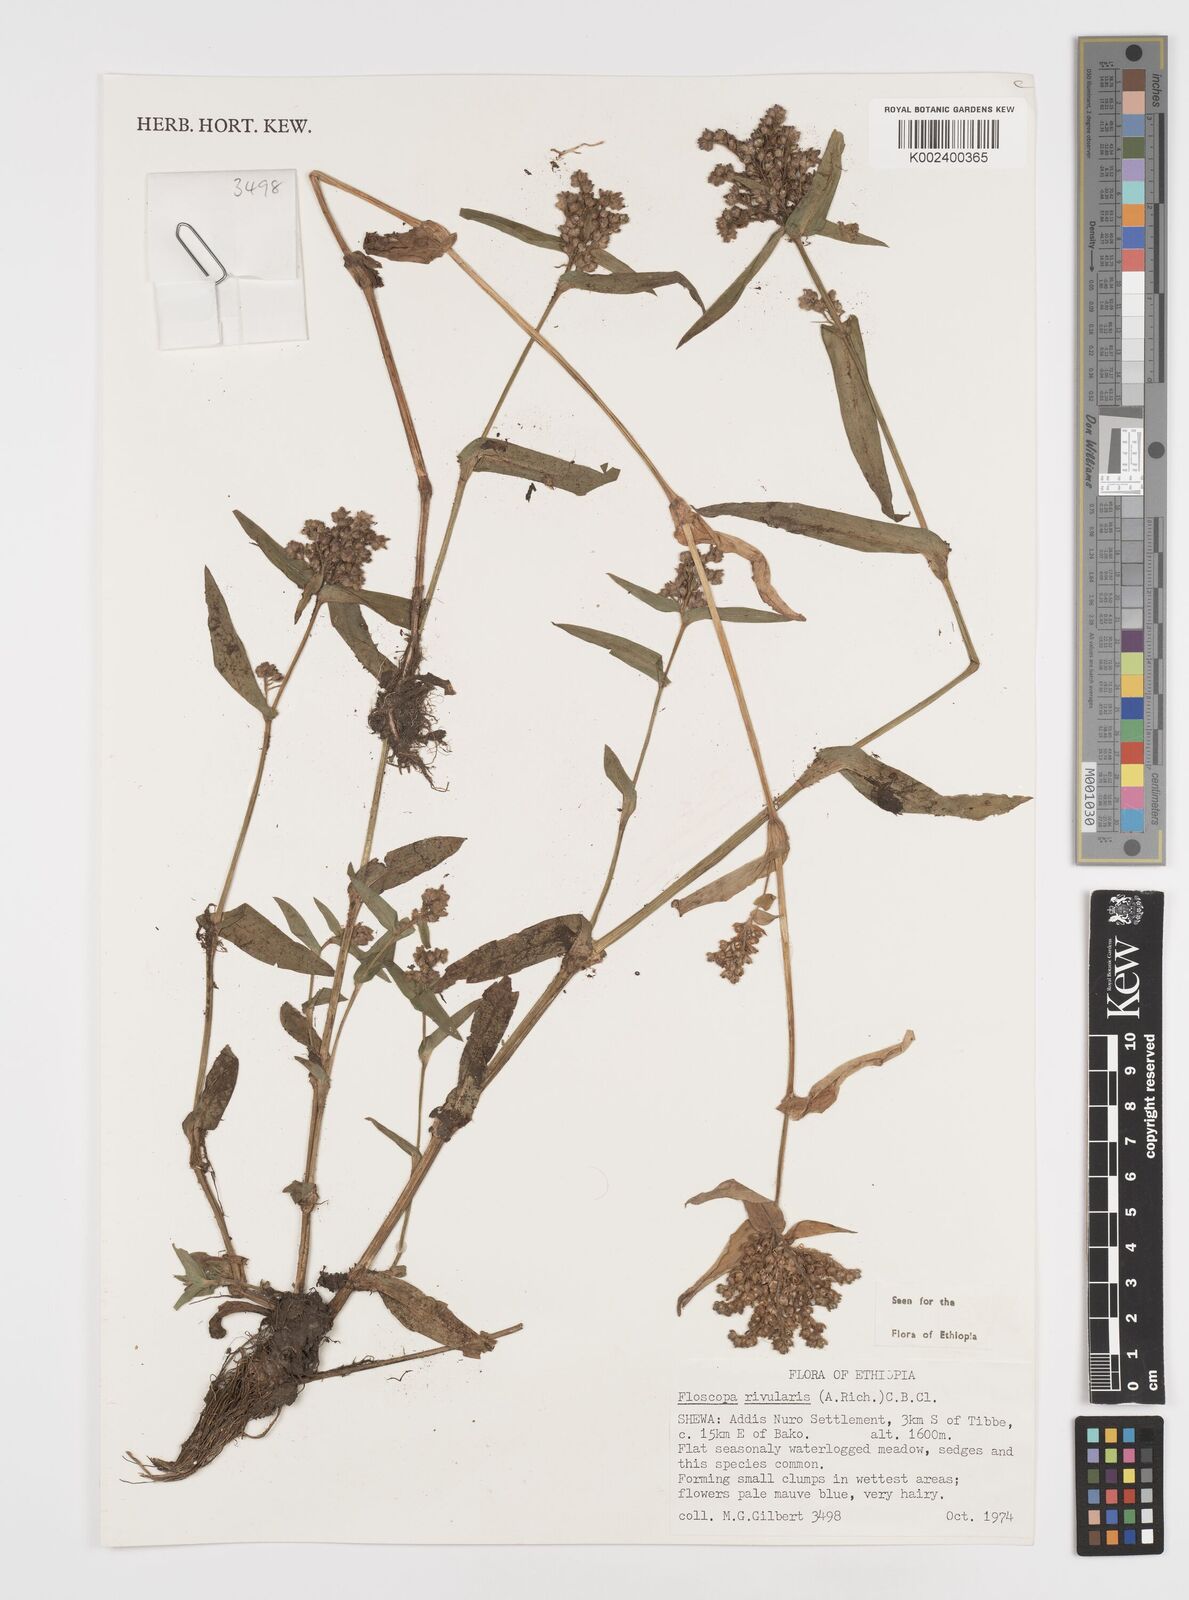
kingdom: Plantae
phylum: Tracheophyta
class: Liliopsida
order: Commelinales
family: Commelinaceae
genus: Floscopa
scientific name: Floscopa glomerata
